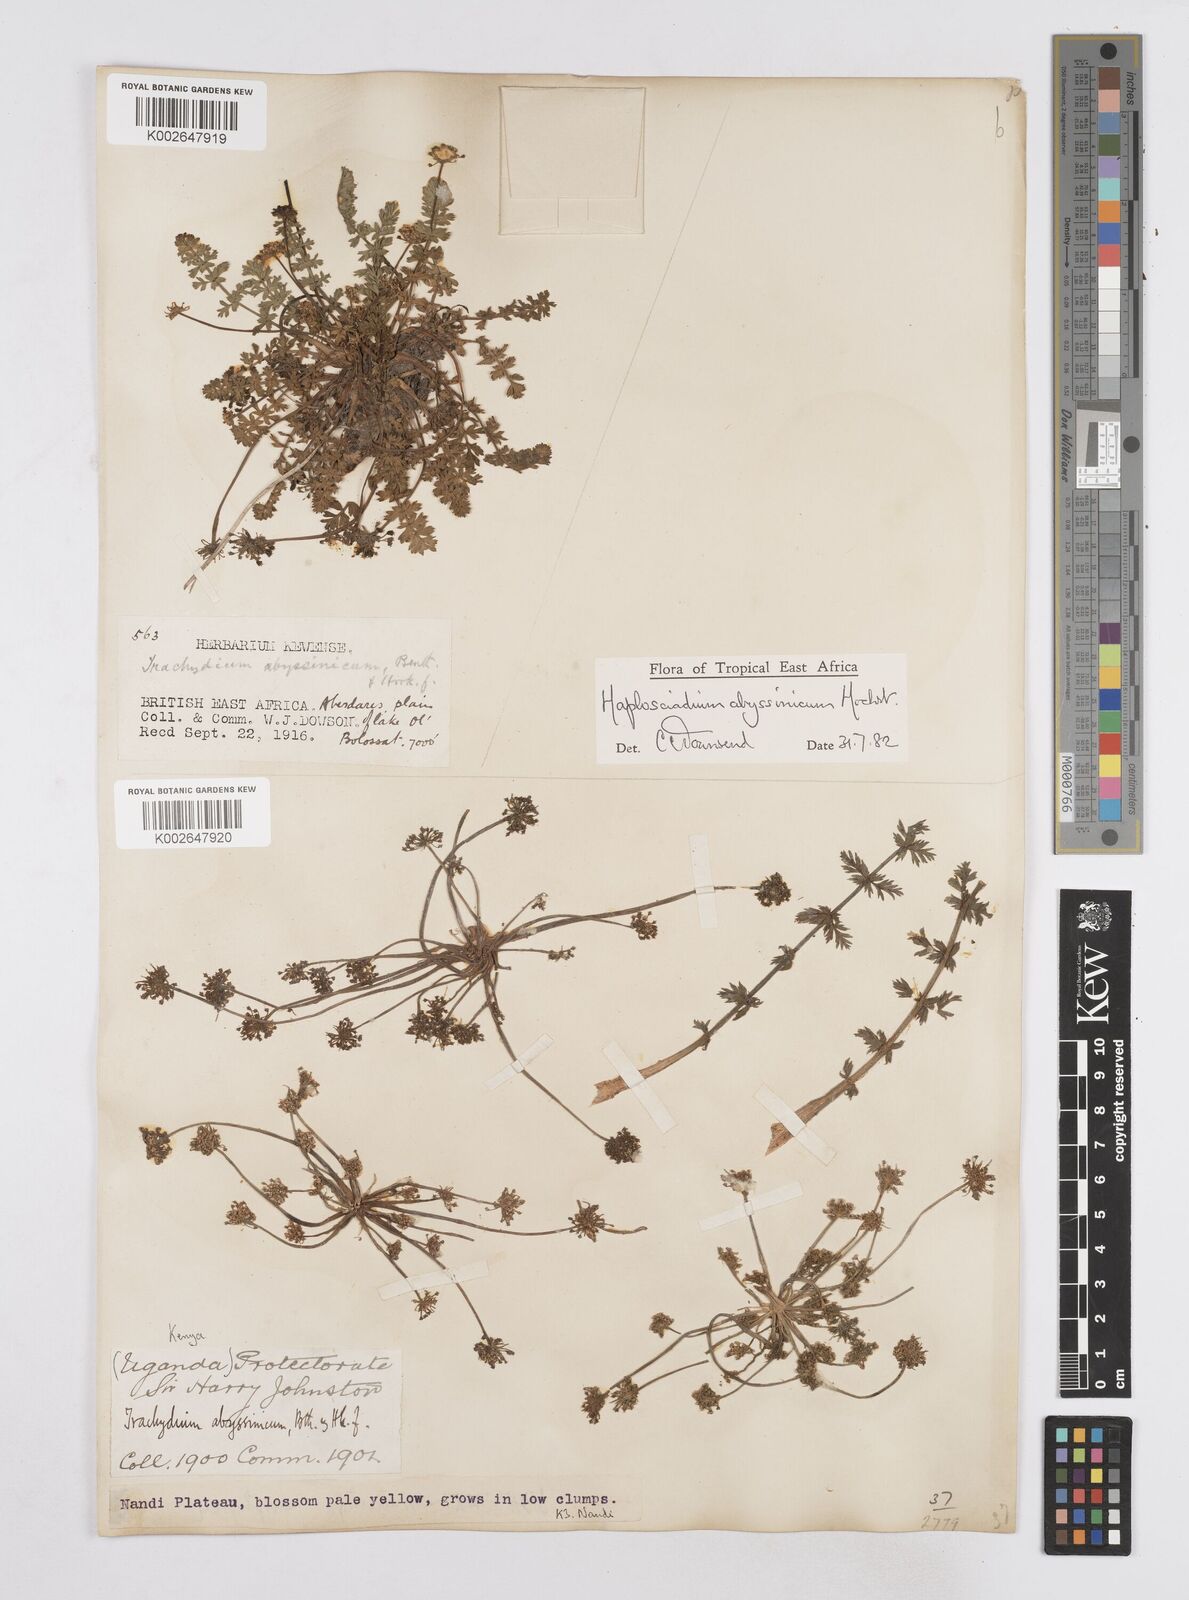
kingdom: Plantae
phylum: Tracheophyta
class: Magnoliopsida
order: Apiales
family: Apiaceae
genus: Haplosciadium
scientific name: Haplosciadium abyssinicum
